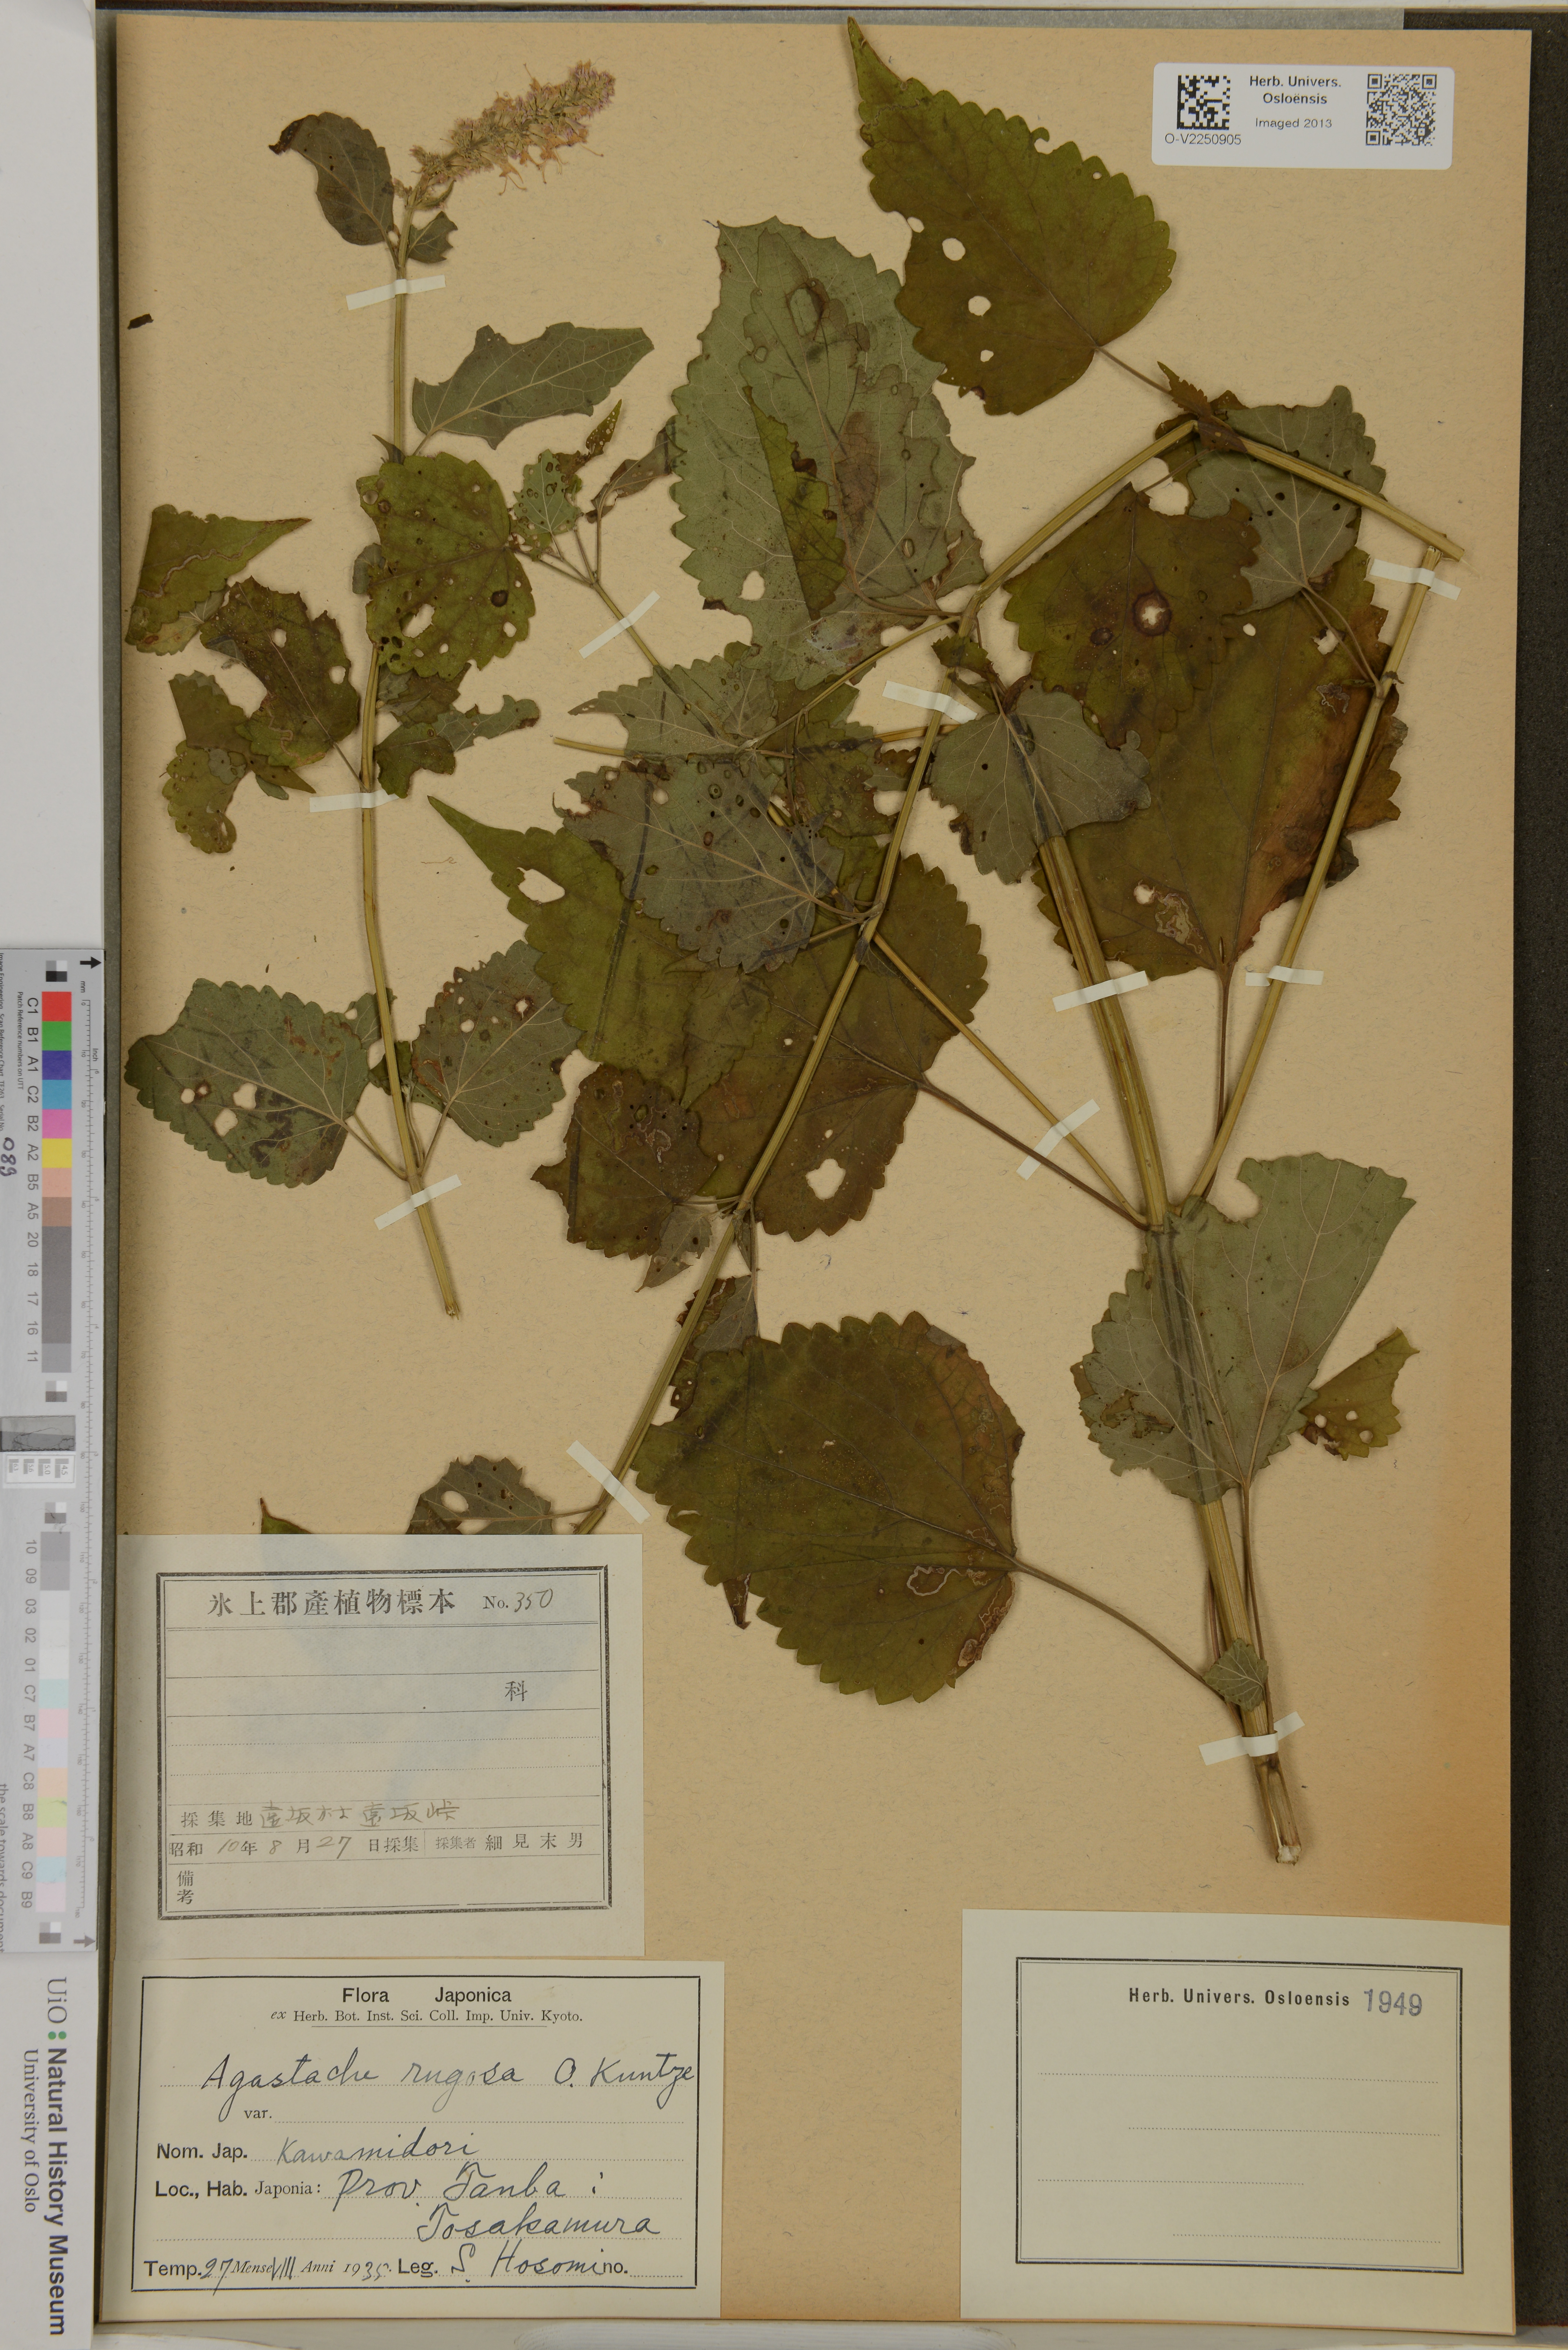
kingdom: Plantae
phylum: Tracheophyta
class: Magnoliopsida
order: Lamiales
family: Lamiaceae
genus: Agastache
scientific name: Agastache rugosa
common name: Mint
